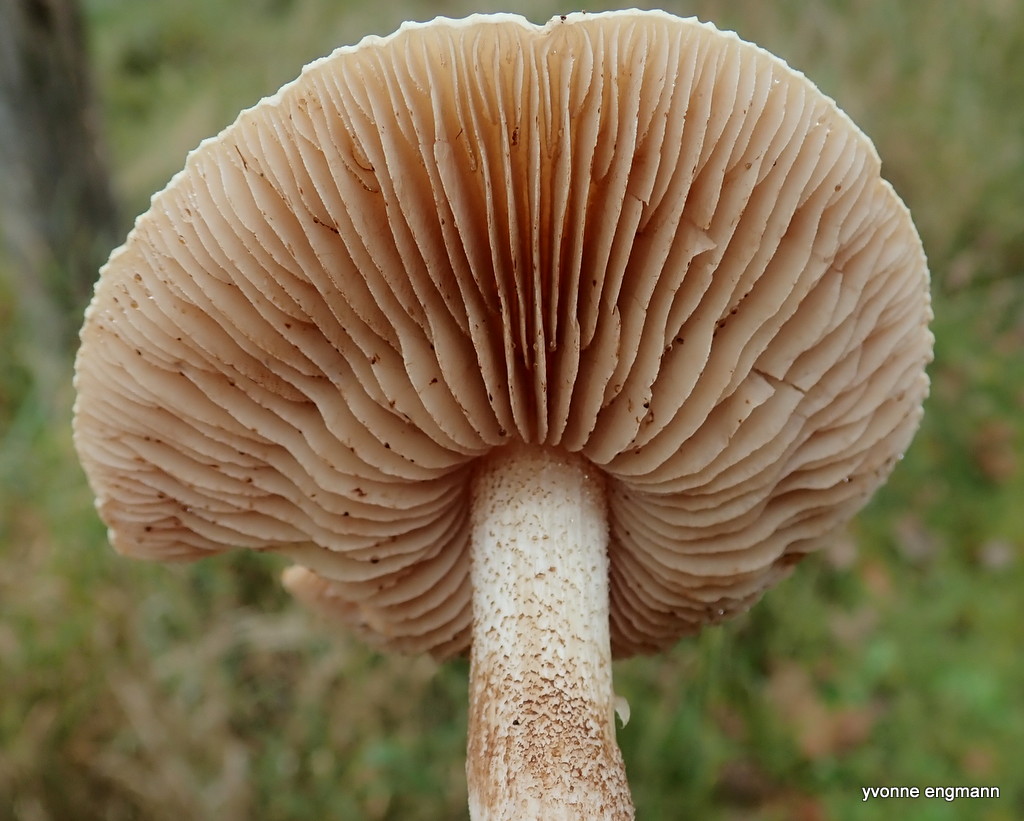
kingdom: Fungi
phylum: Basidiomycota
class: Agaricomycetes
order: Agaricales
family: Hymenogastraceae
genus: Hebeloma
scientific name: Hebeloma
